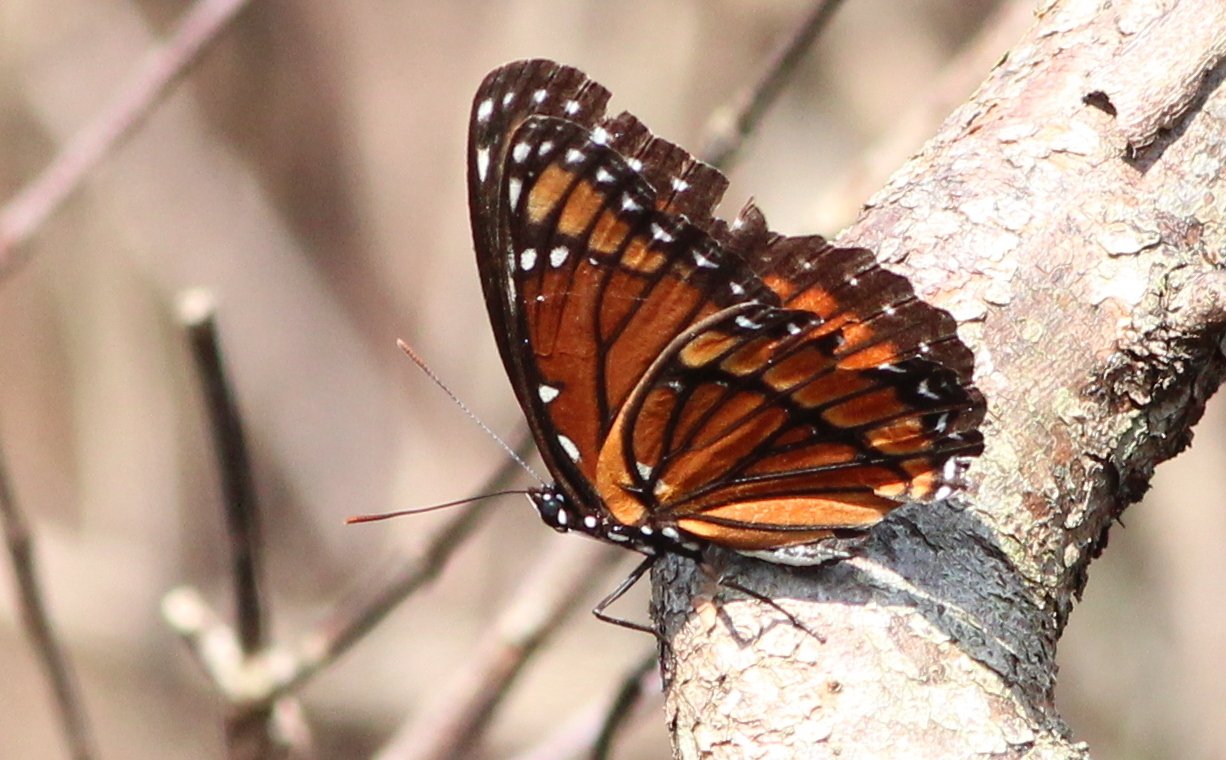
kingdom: Animalia
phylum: Arthropoda
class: Insecta
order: Lepidoptera
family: Nymphalidae
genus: Limenitis
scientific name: Limenitis archippus
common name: Viceroy
